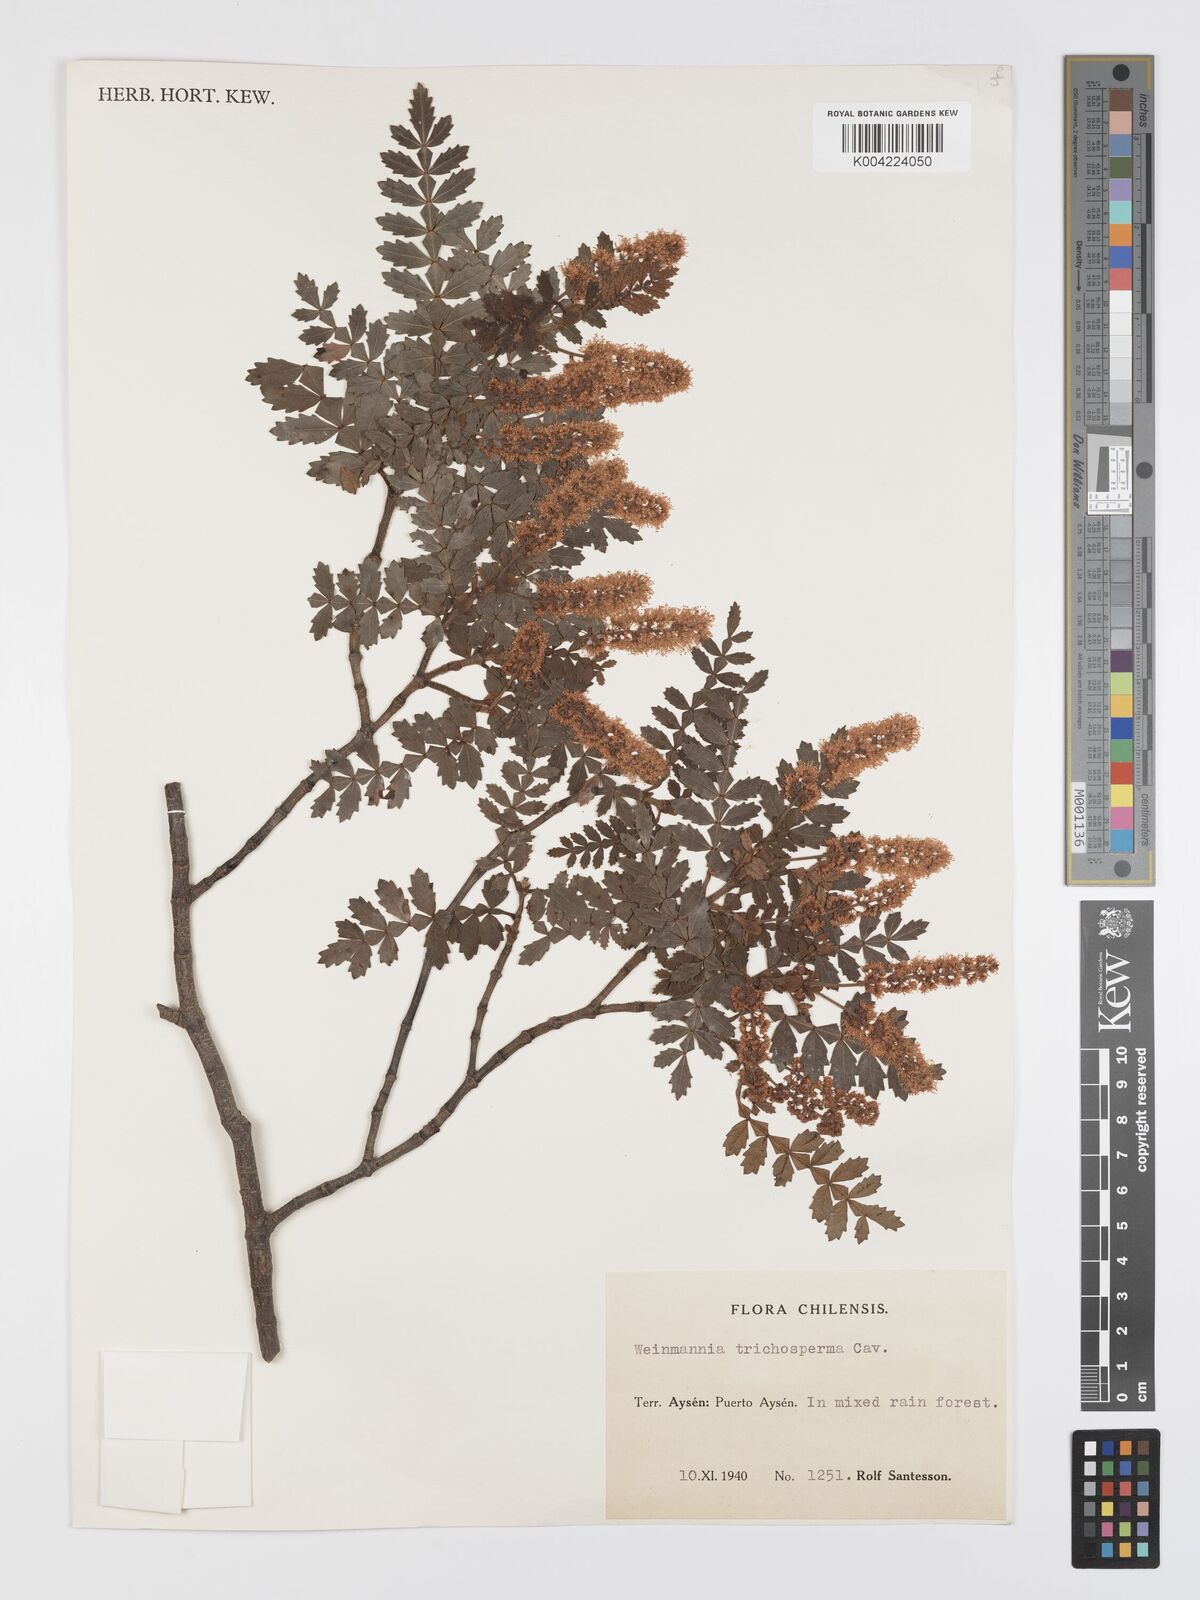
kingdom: Plantae
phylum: Tracheophyta
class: Magnoliopsida
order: Oxalidales
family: Cunoniaceae
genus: Weinmannia
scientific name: Weinmannia trichosperma
